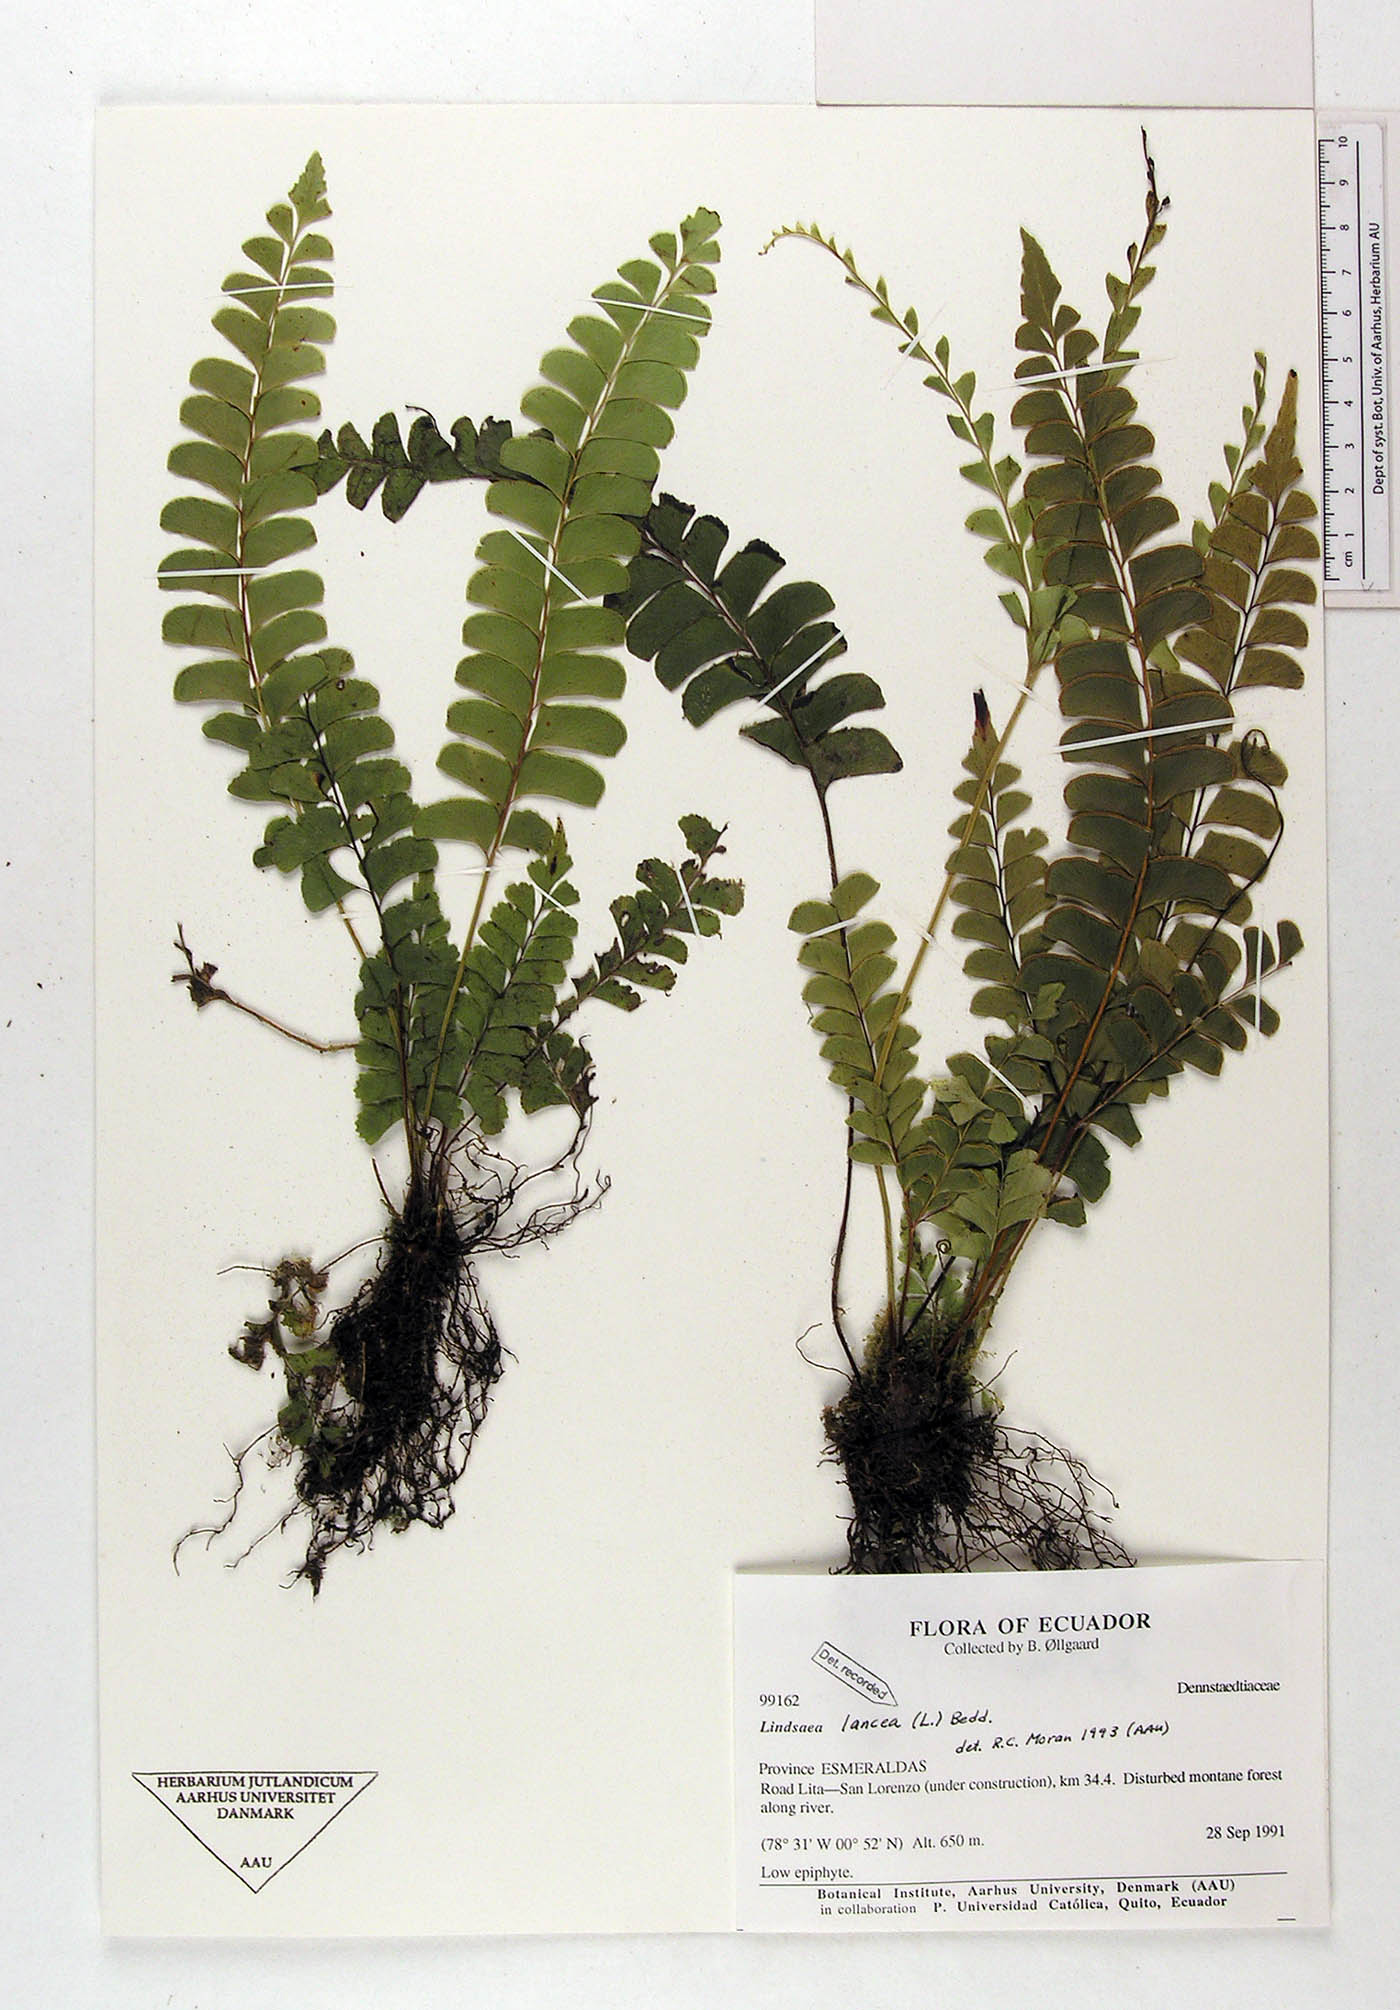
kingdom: Plantae
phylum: Tracheophyta
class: Polypodiopsida
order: Polypodiales
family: Dennstaedtiaceae
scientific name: Dennstaedtiaceae
